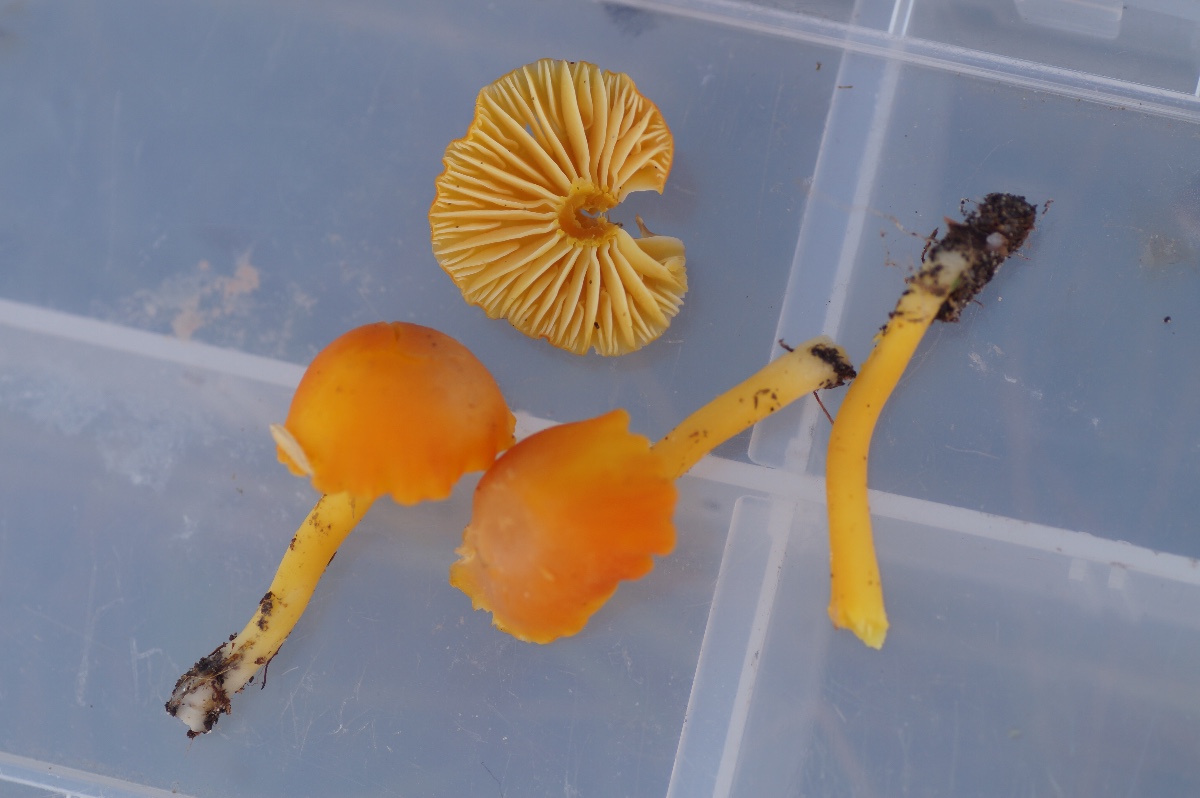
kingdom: Fungi
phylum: Basidiomycota
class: Agaricomycetes
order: Agaricales
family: Hygrophoraceae
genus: Hygrocybe
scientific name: Hygrocybe reidii
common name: honning-vokshat
